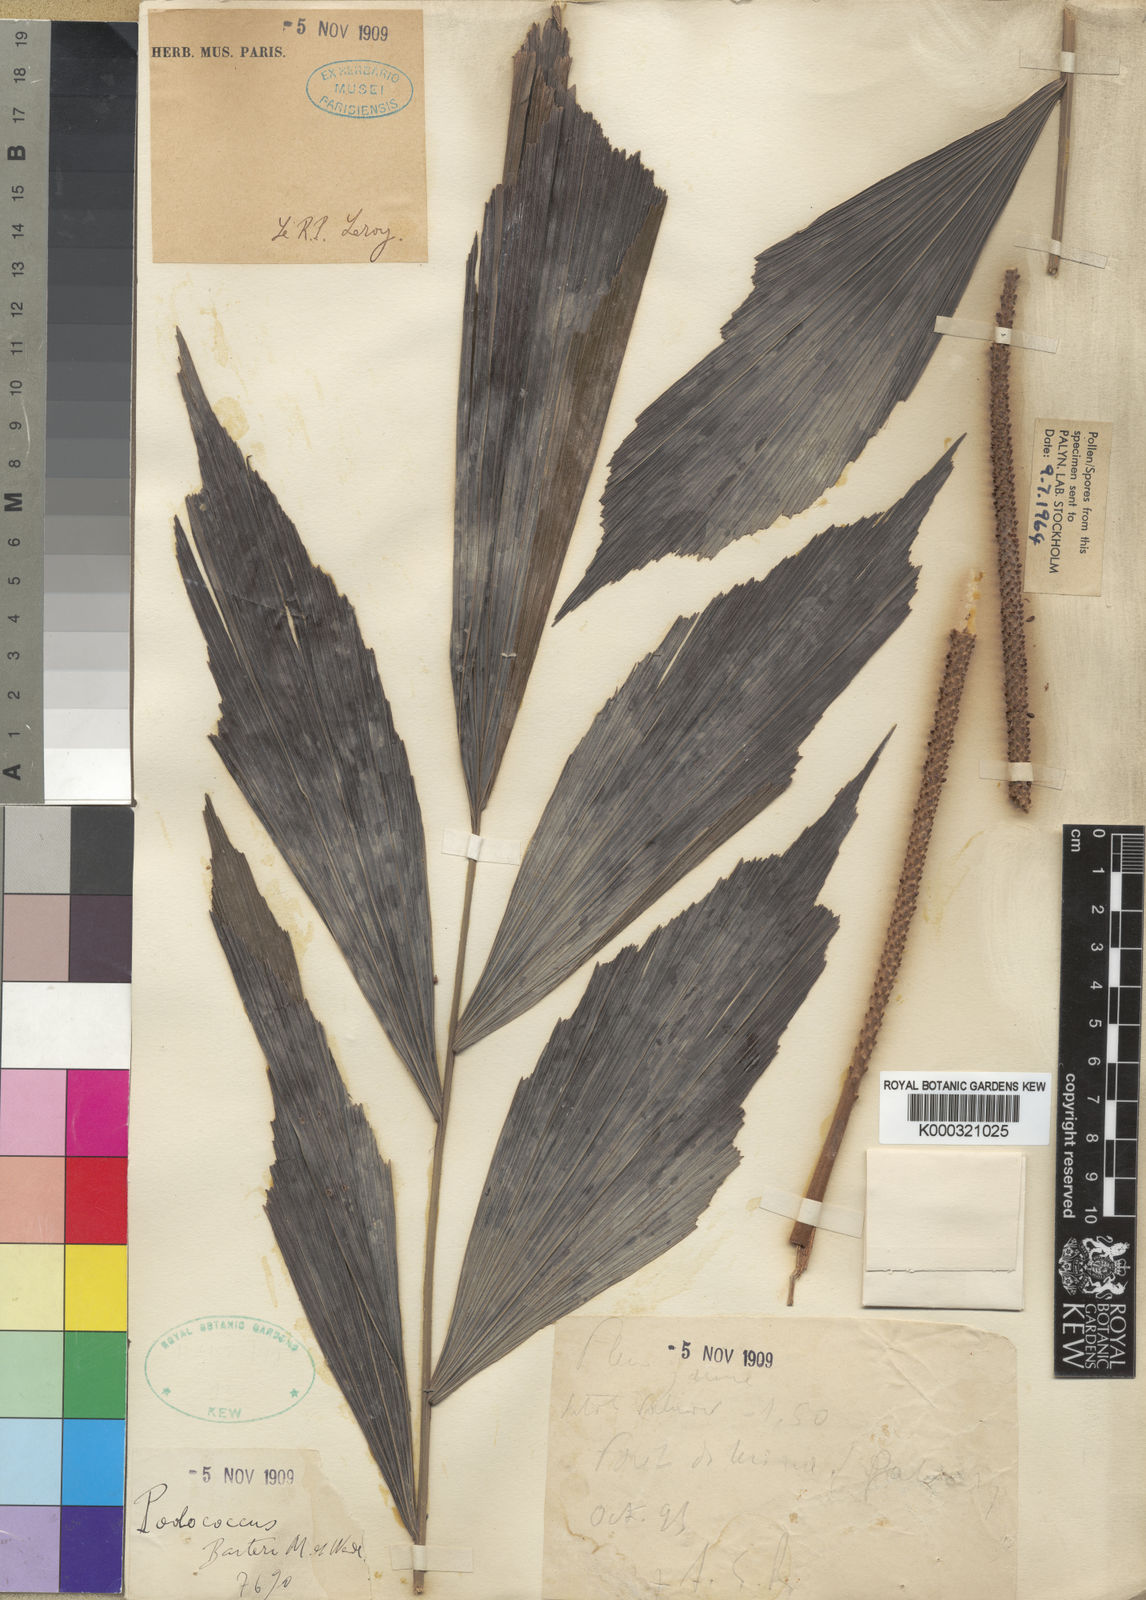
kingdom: Plantae
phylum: Tracheophyta
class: Liliopsida
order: Arecales
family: Arecaceae
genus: Podococcus
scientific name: Podococcus acaulis
